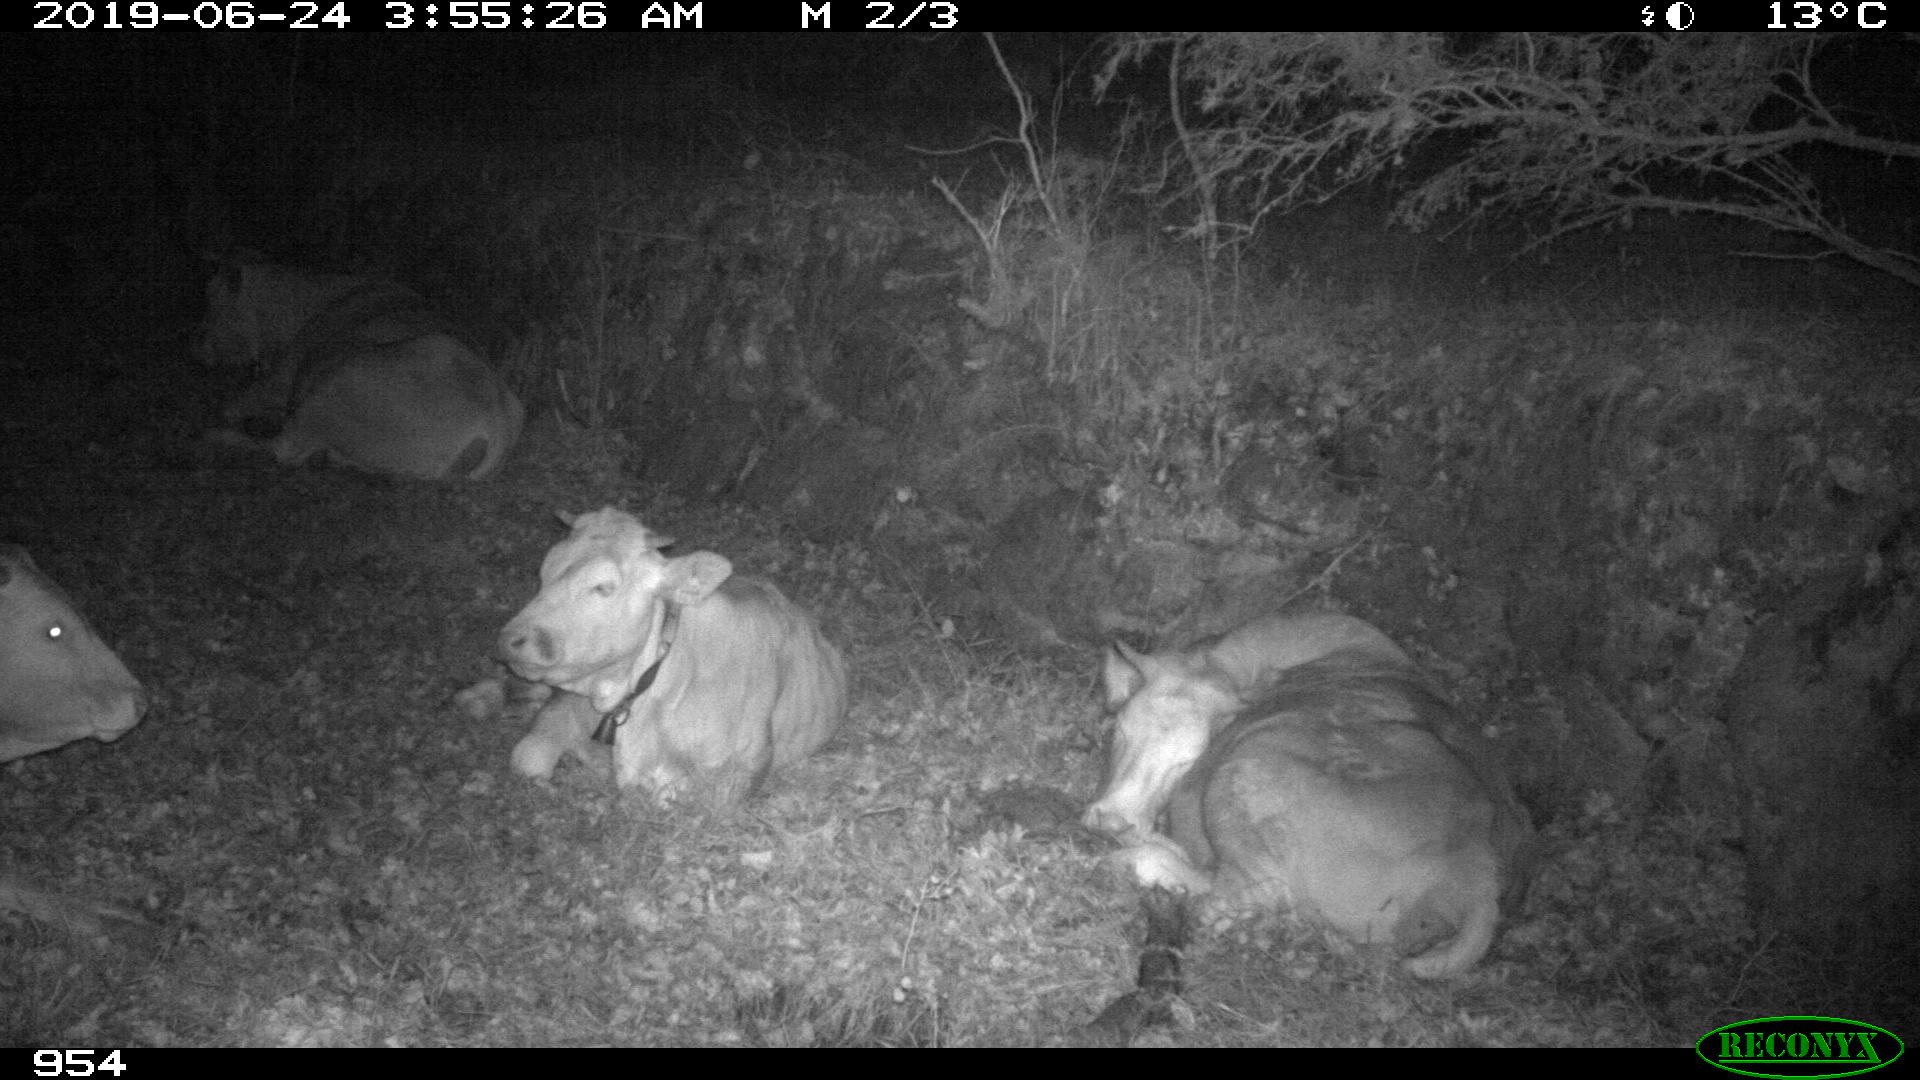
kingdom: Animalia
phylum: Chordata
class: Mammalia
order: Artiodactyla
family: Bovidae
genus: Bos
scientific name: Bos taurus
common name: Domesticated cattle
